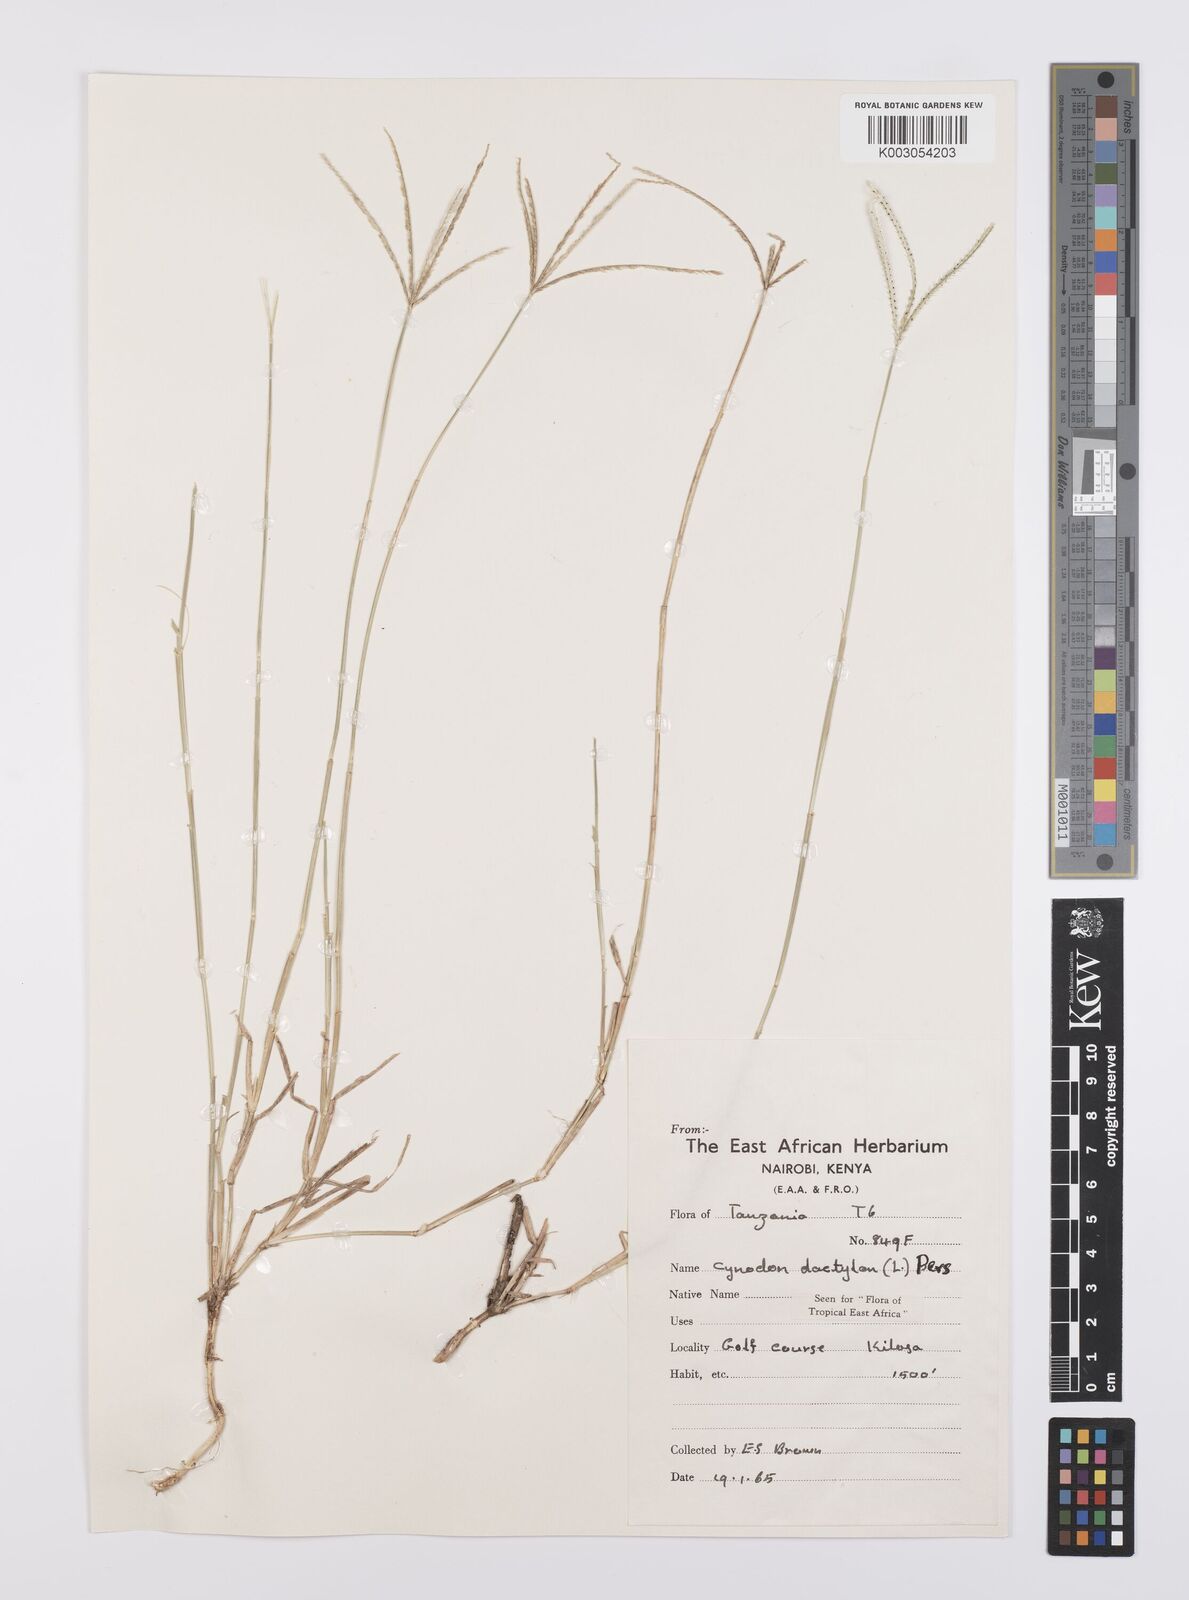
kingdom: Plantae
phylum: Tracheophyta
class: Liliopsida
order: Poales
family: Poaceae
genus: Cynodon
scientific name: Cynodon dactylon
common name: Bermuda grass
